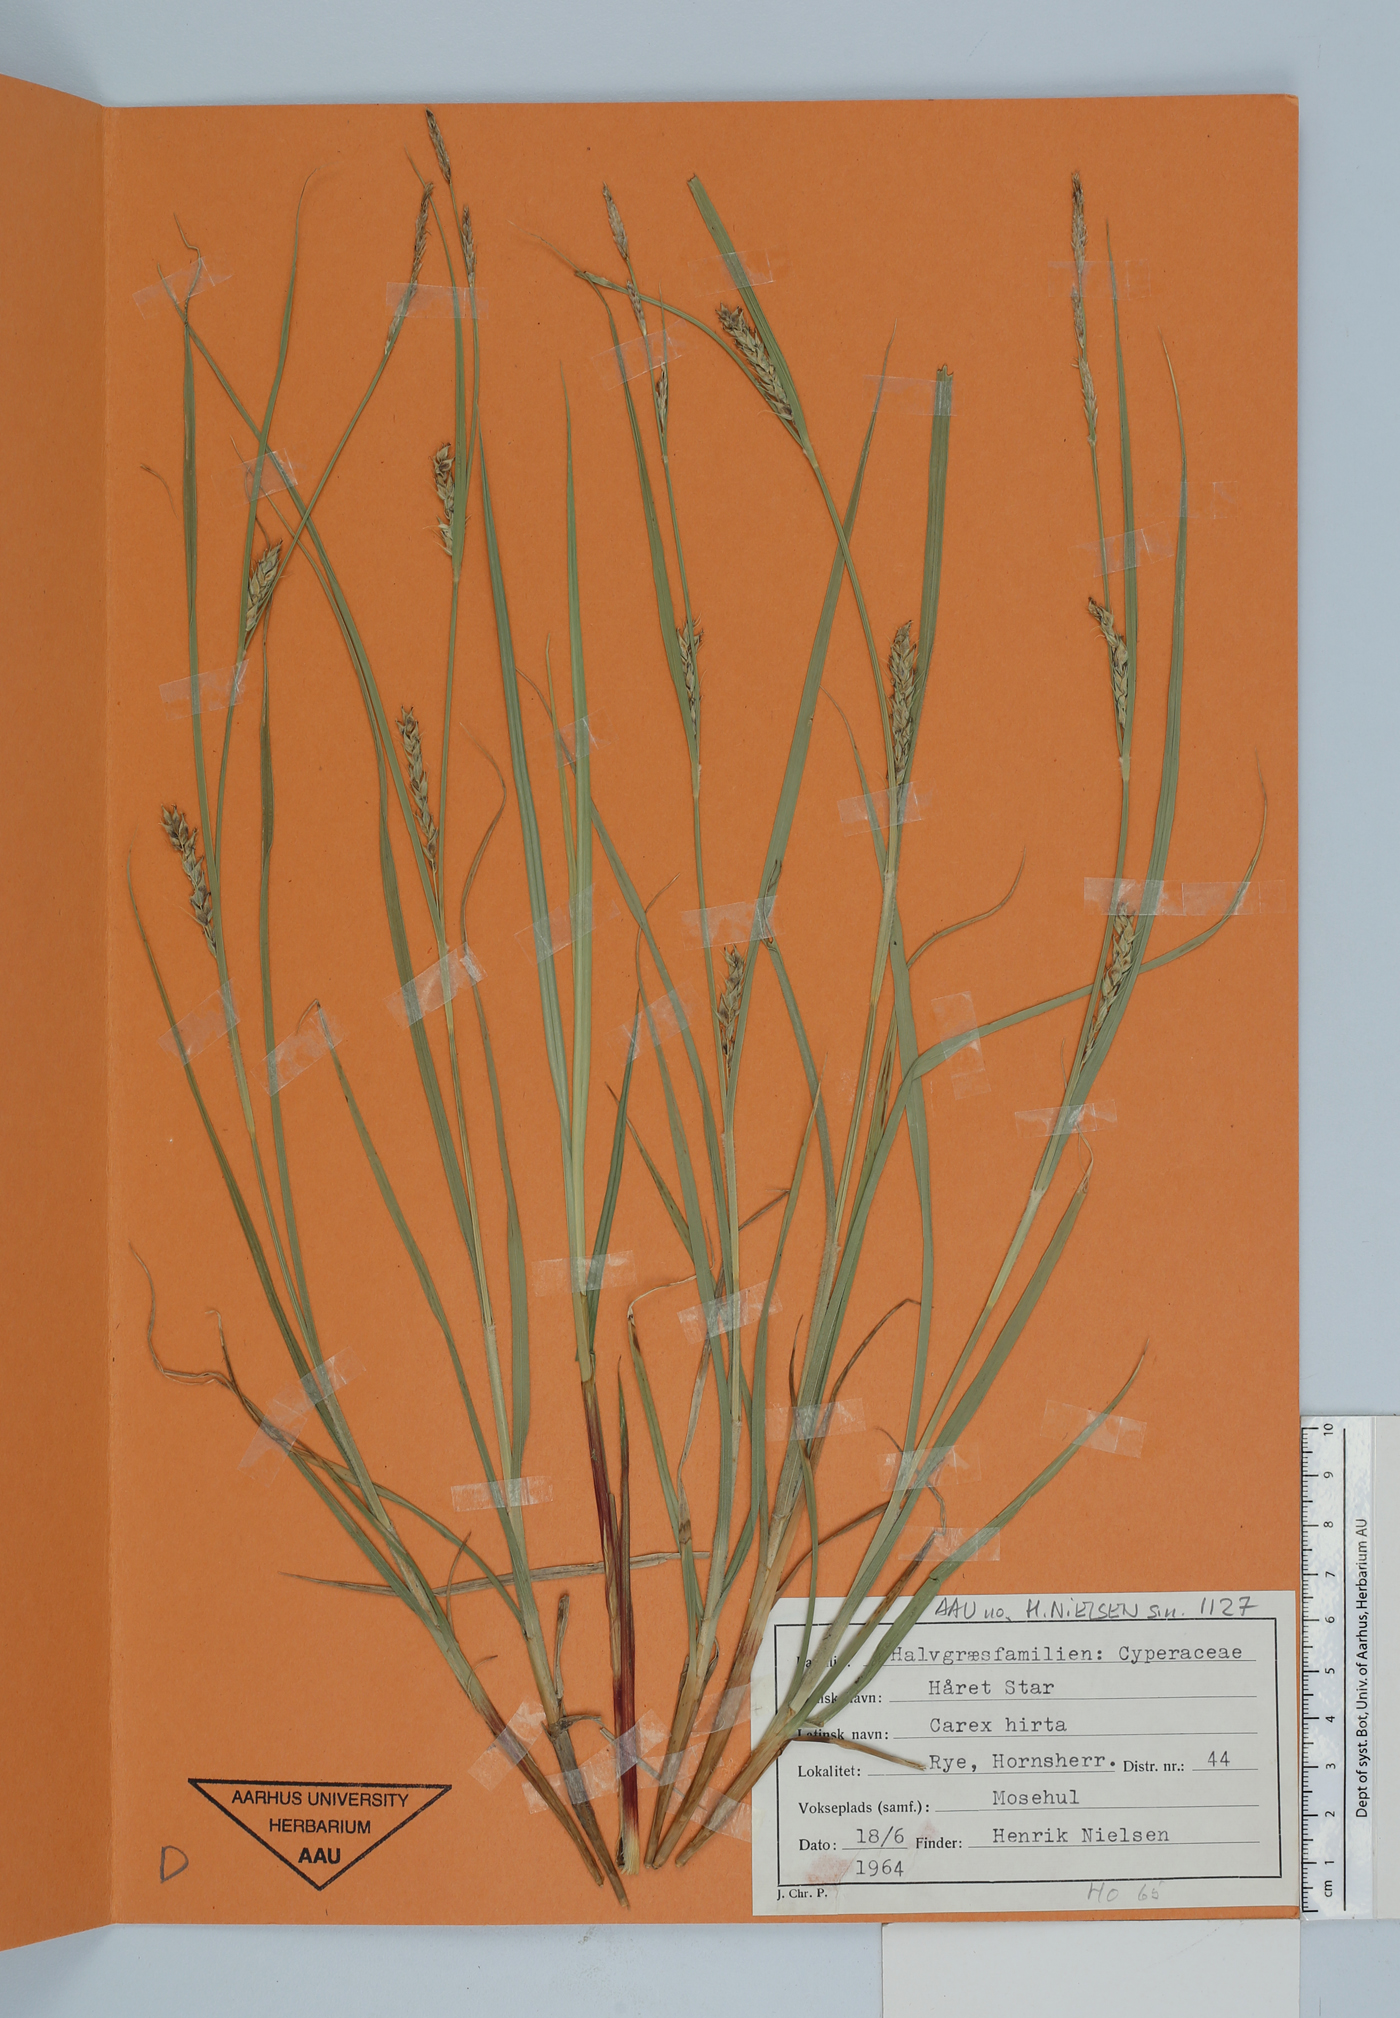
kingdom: Plantae
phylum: Tracheophyta
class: Liliopsida
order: Poales
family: Cyperaceae
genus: Carex
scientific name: Carex hirta
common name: Hairy sedge
